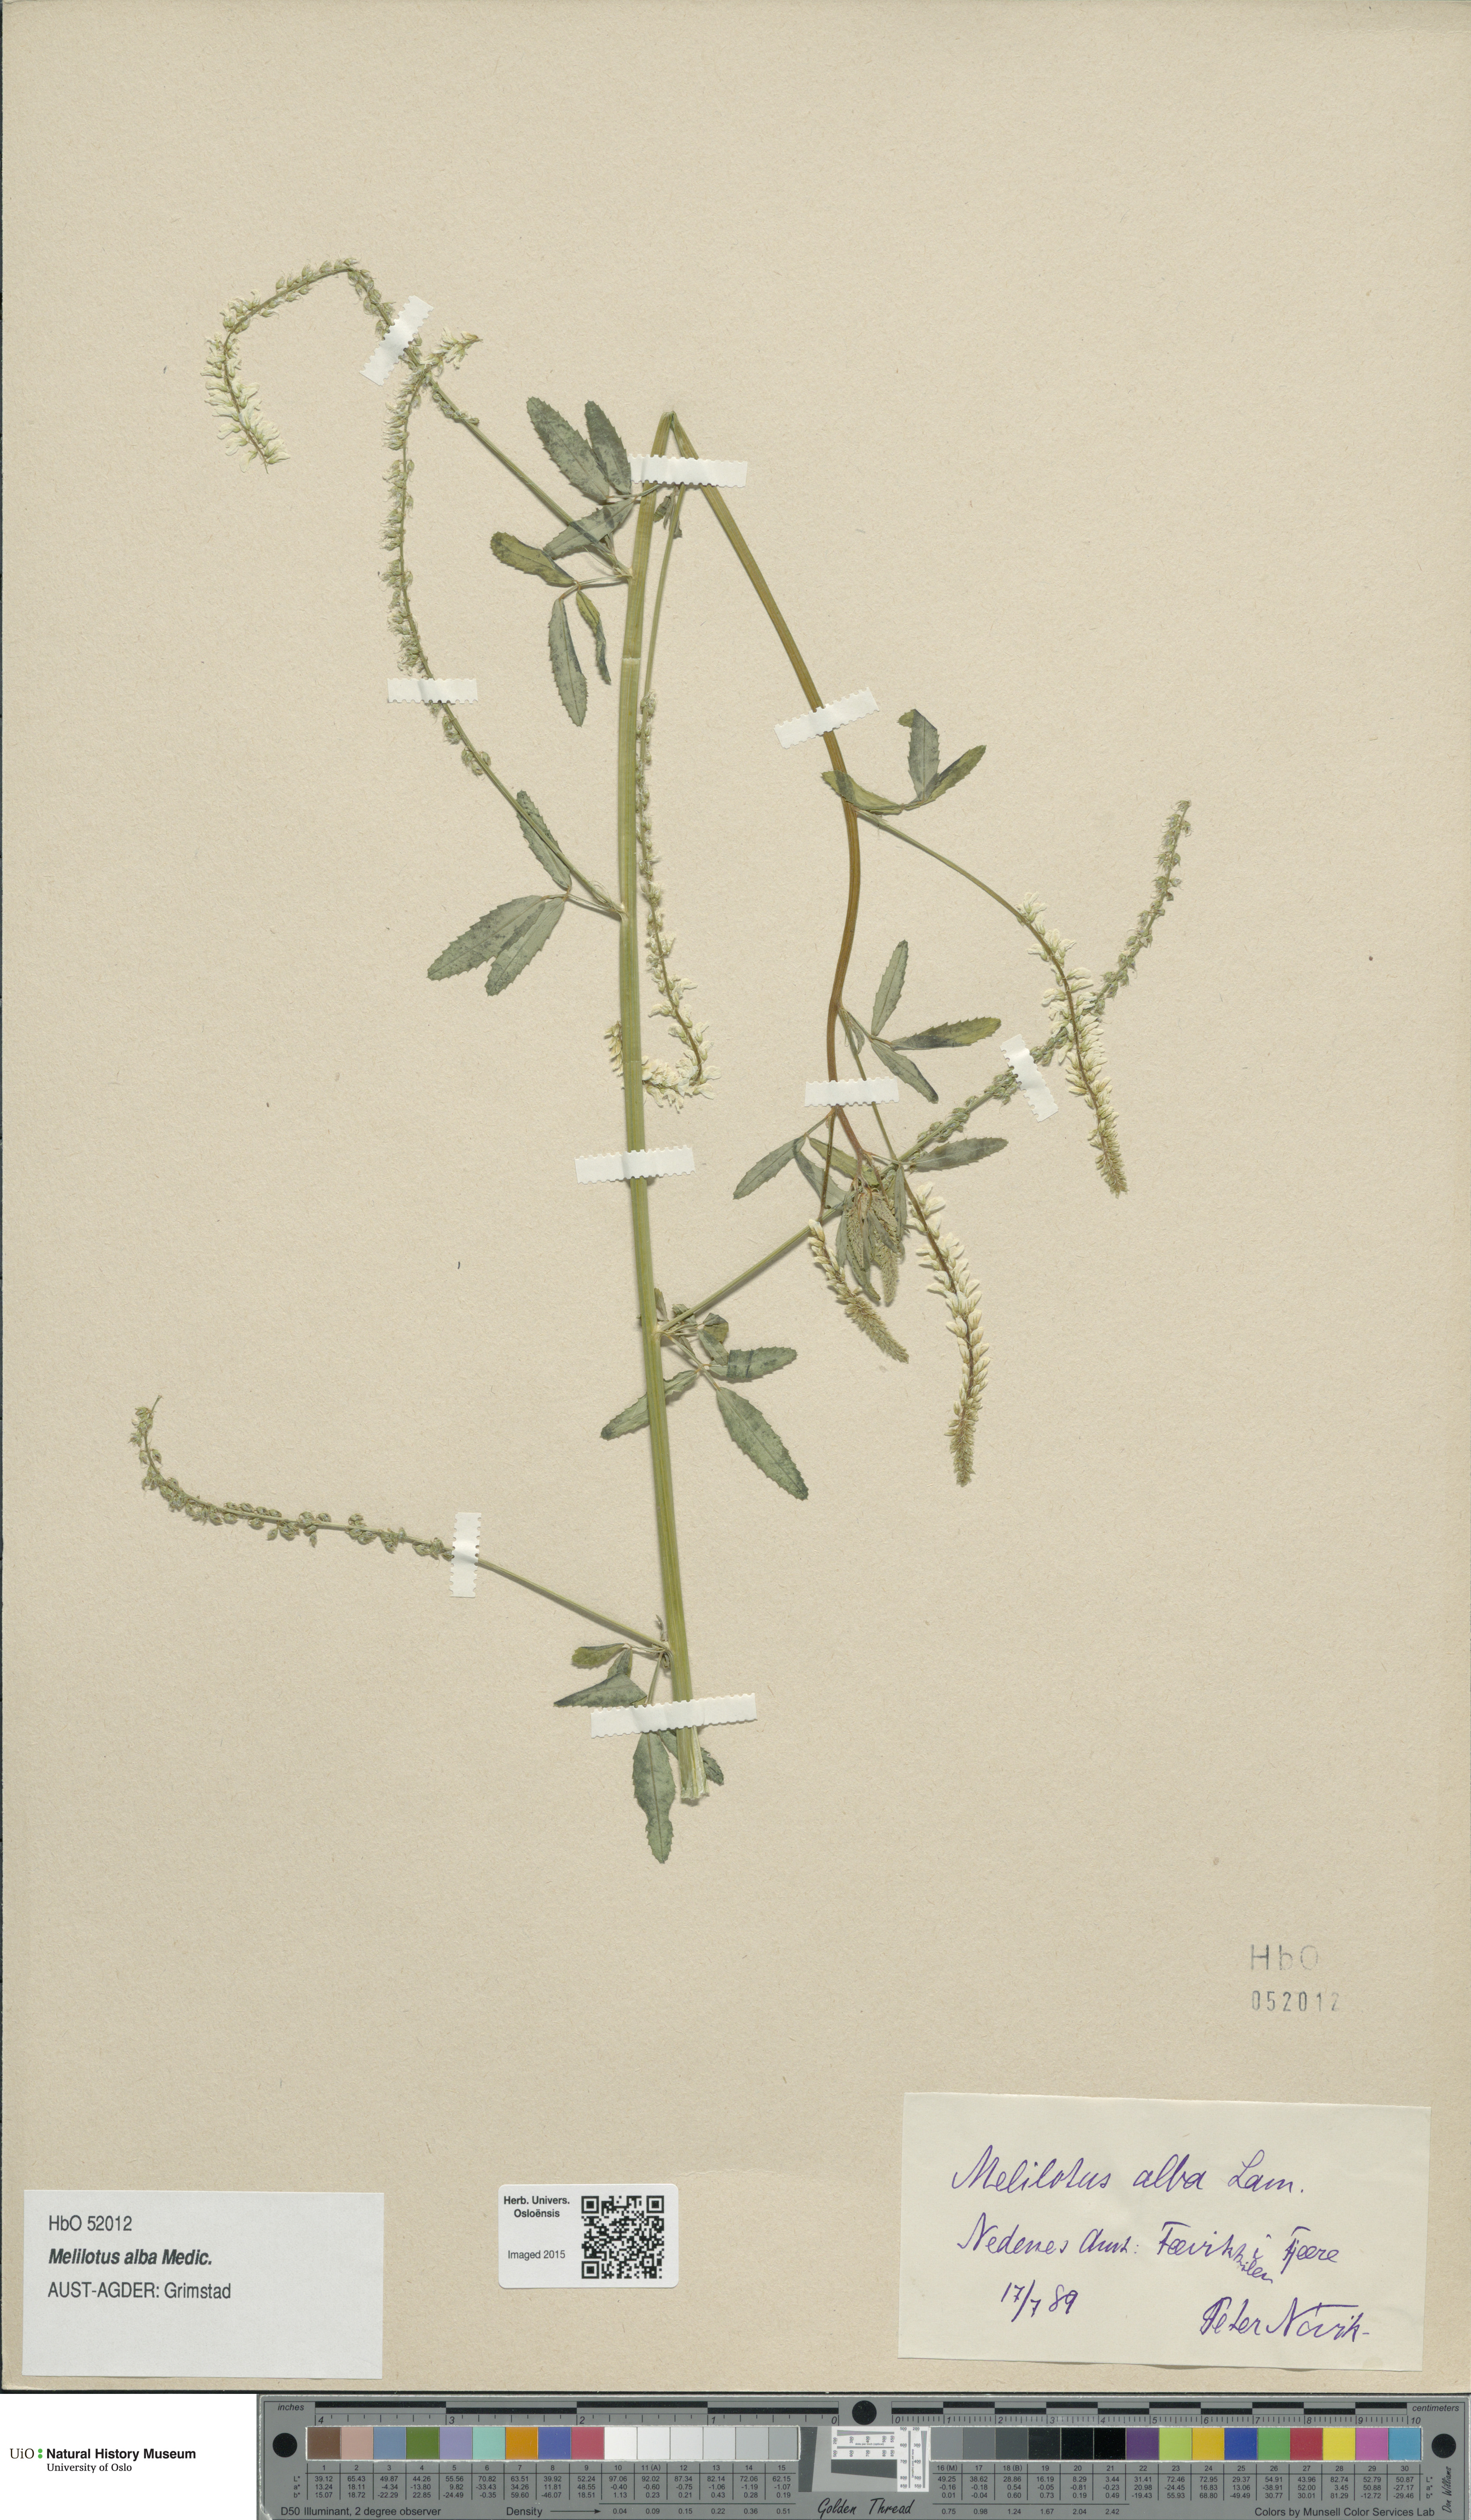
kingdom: Plantae
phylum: Tracheophyta
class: Magnoliopsida
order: Fabales
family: Fabaceae
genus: Melilotus
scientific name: Melilotus albus
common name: White melilot
